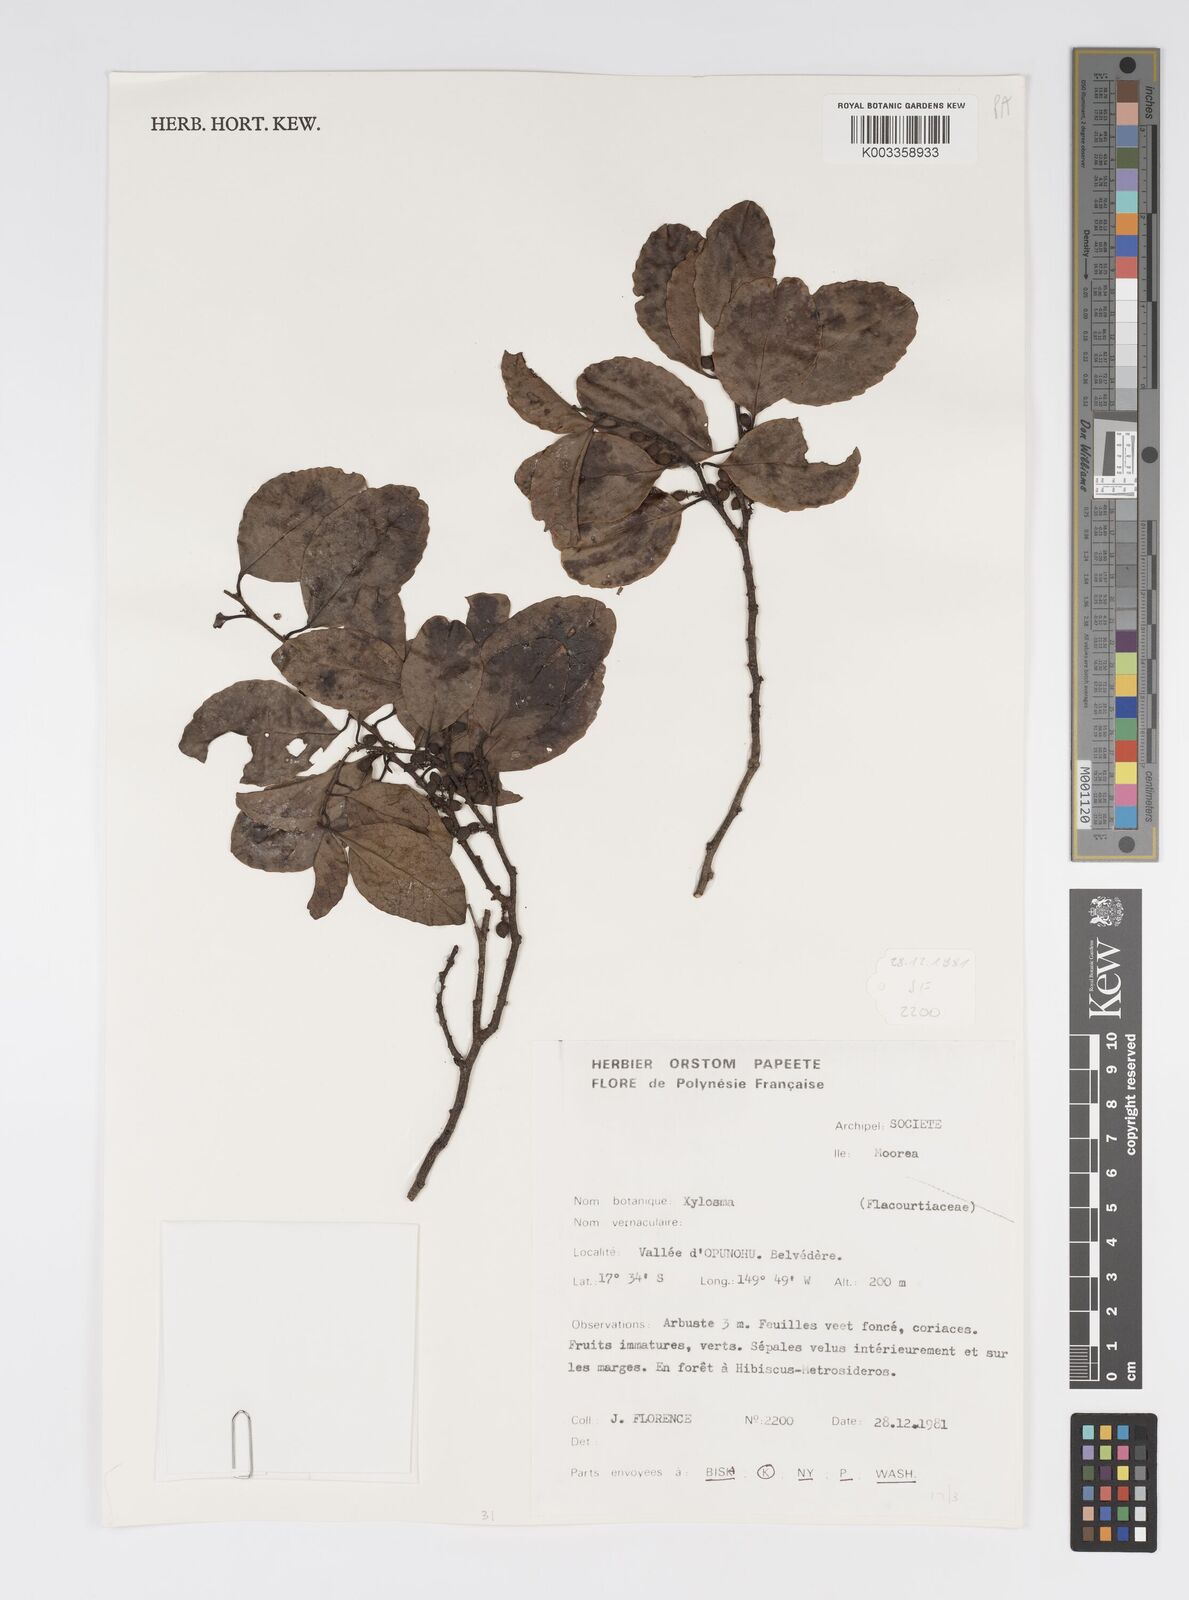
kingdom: Plantae
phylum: Tracheophyta
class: Magnoliopsida
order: Malpighiales
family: Salicaceae
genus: Xylosma
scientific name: Xylosma
